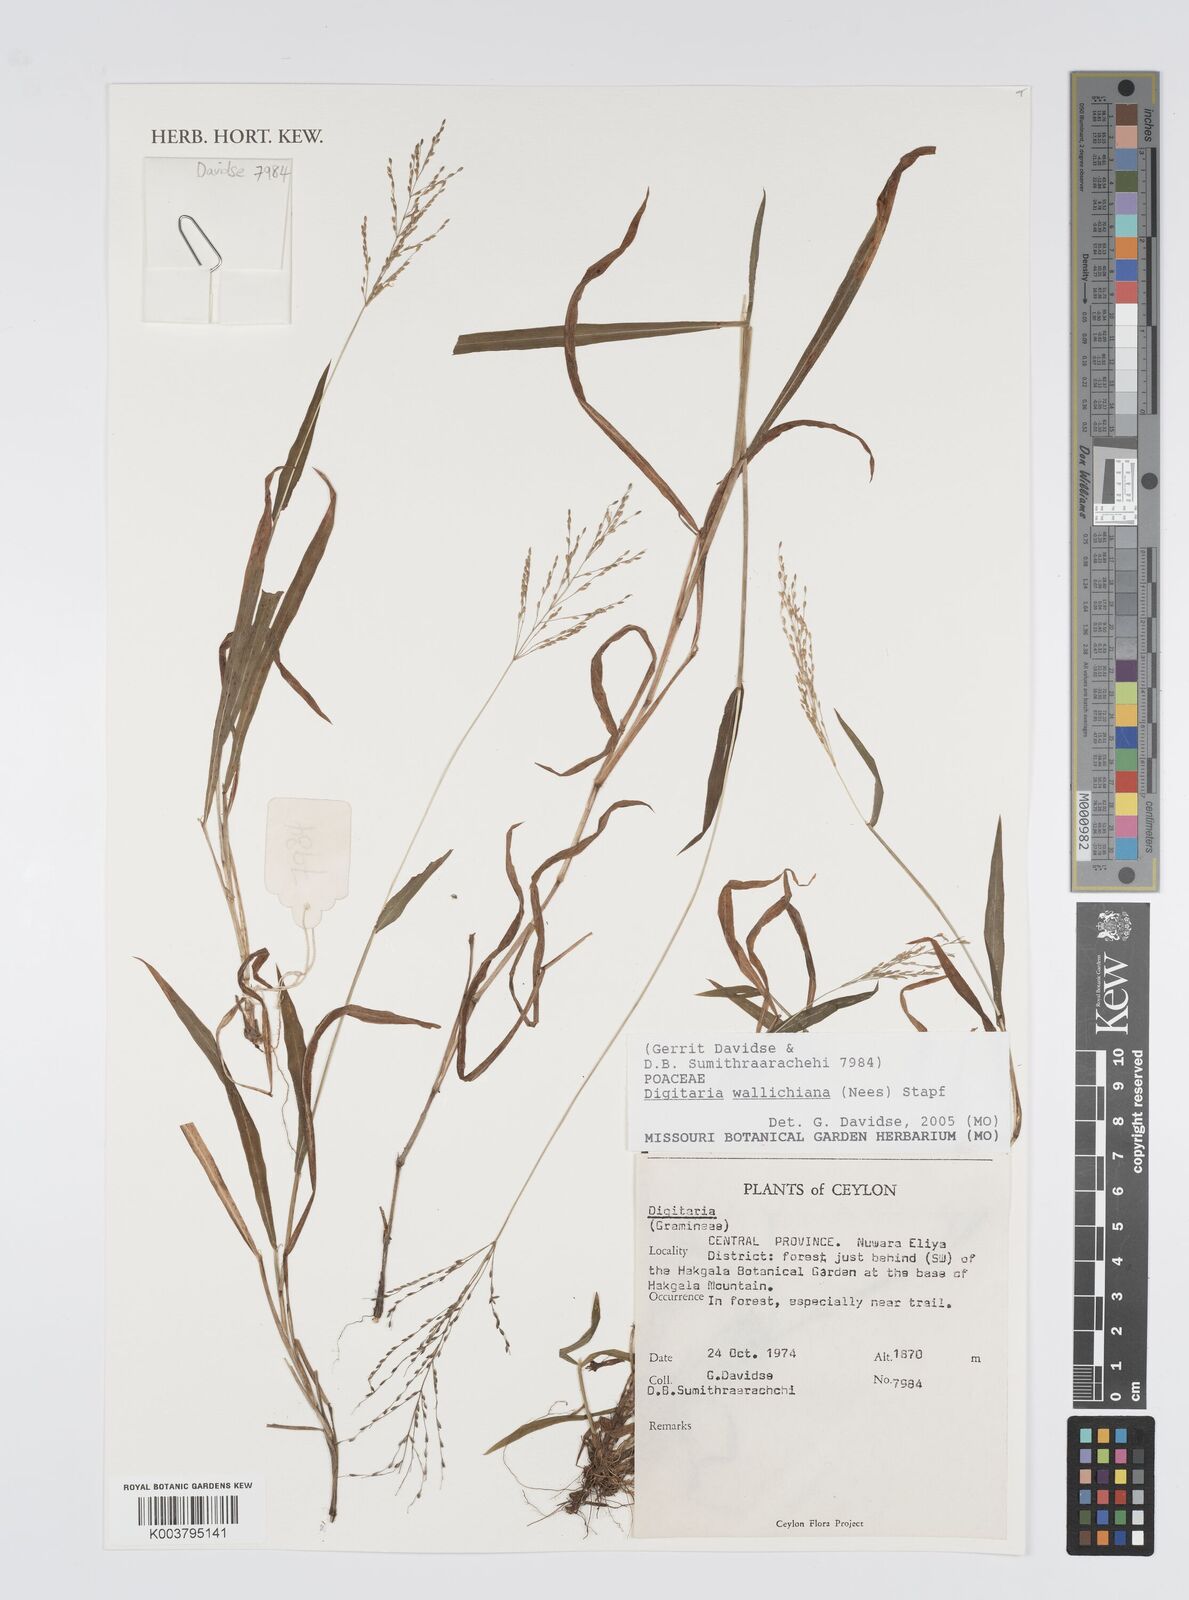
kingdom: Plantae
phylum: Tracheophyta
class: Liliopsida
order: Poales
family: Poaceae
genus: Digitaria
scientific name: Digitaria wallichiana
